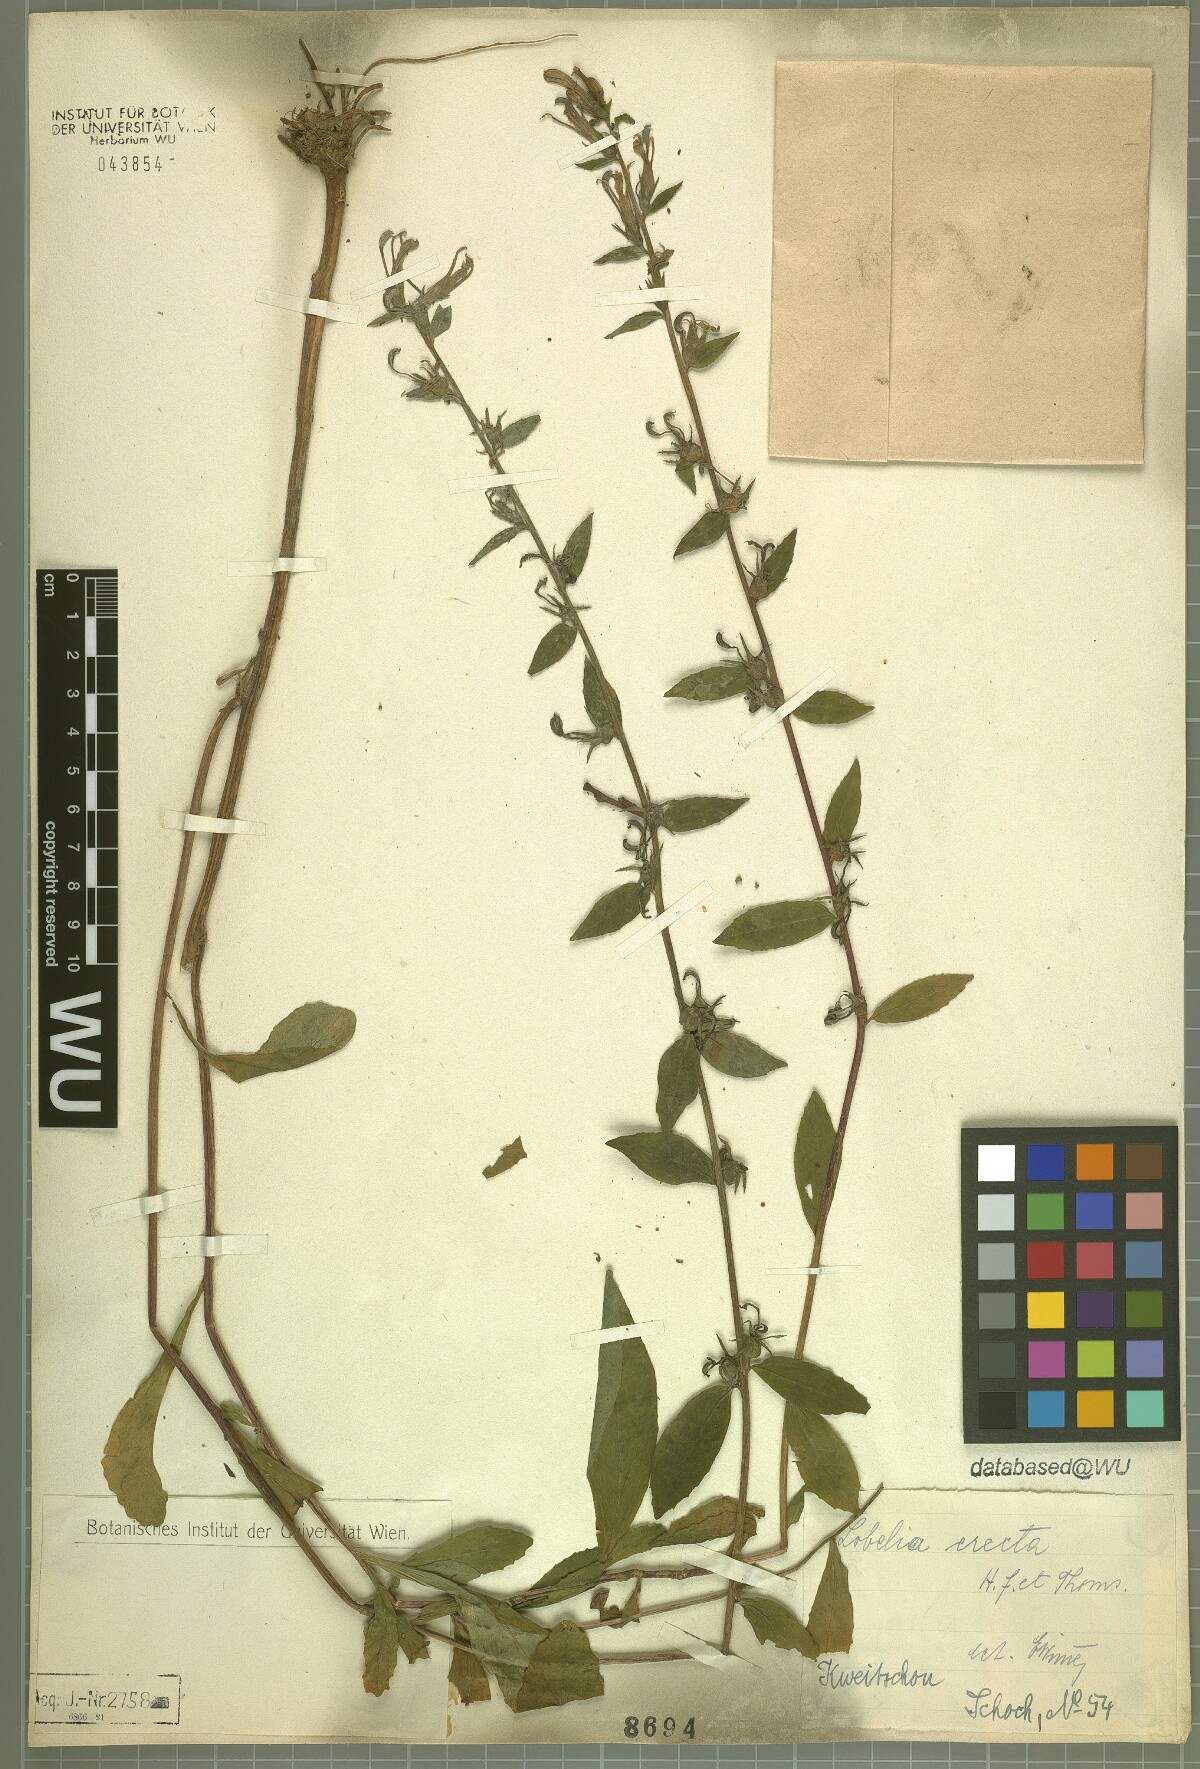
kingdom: Plantae
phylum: Tracheophyta
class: Magnoliopsida
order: Asterales
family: Campanulaceae
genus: Lobelia
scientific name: Lobelia erectiuscula
